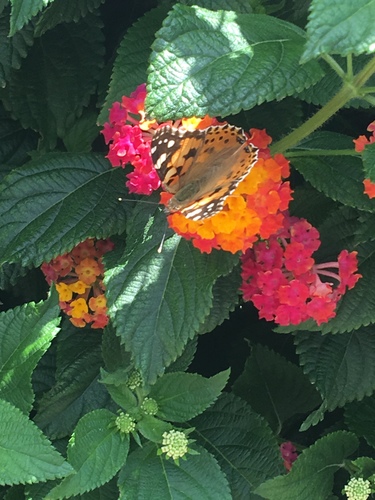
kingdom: Animalia
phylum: Arthropoda
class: Insecta
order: Lepidoptera
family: Nymphalidae
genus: Vanessa
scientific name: Vanessa cardui
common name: Painted lady
